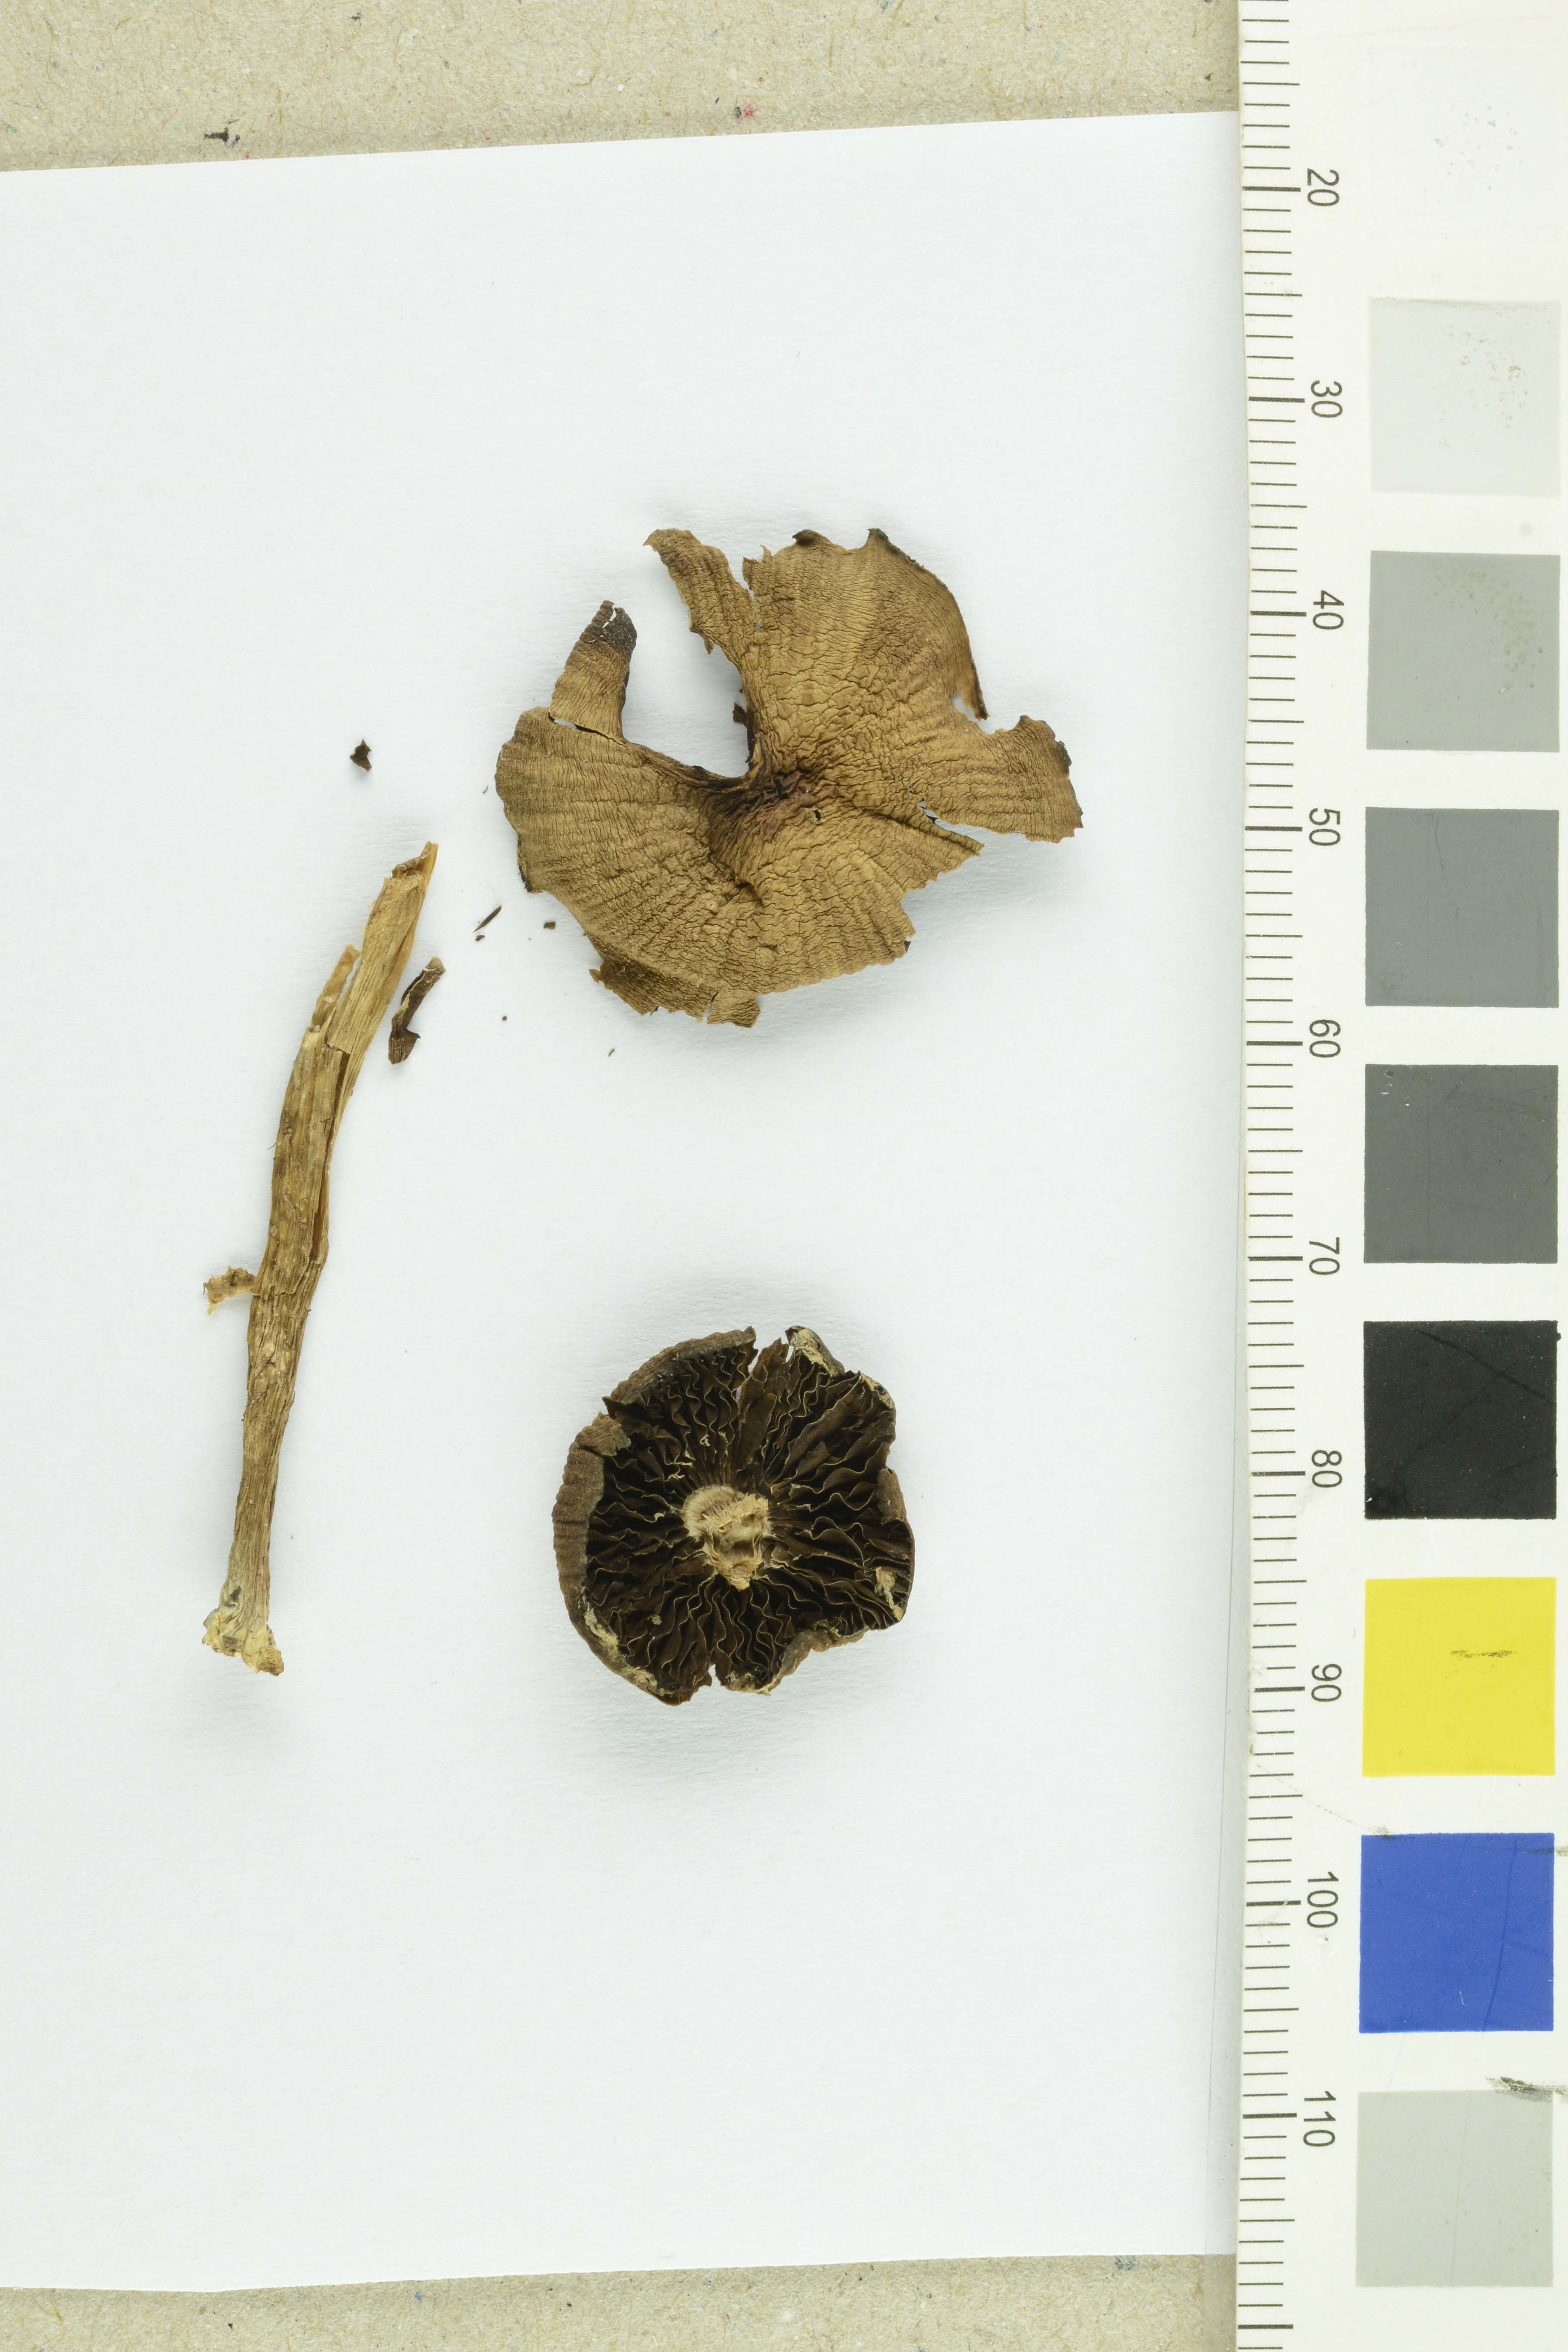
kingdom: Fungi
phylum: Basidiomycota
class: Agaricomycetes
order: Agaricales
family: Psathyrellaceae
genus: Psathyrella
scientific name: Psathyrella atomatoides
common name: Solitary brittlestem
